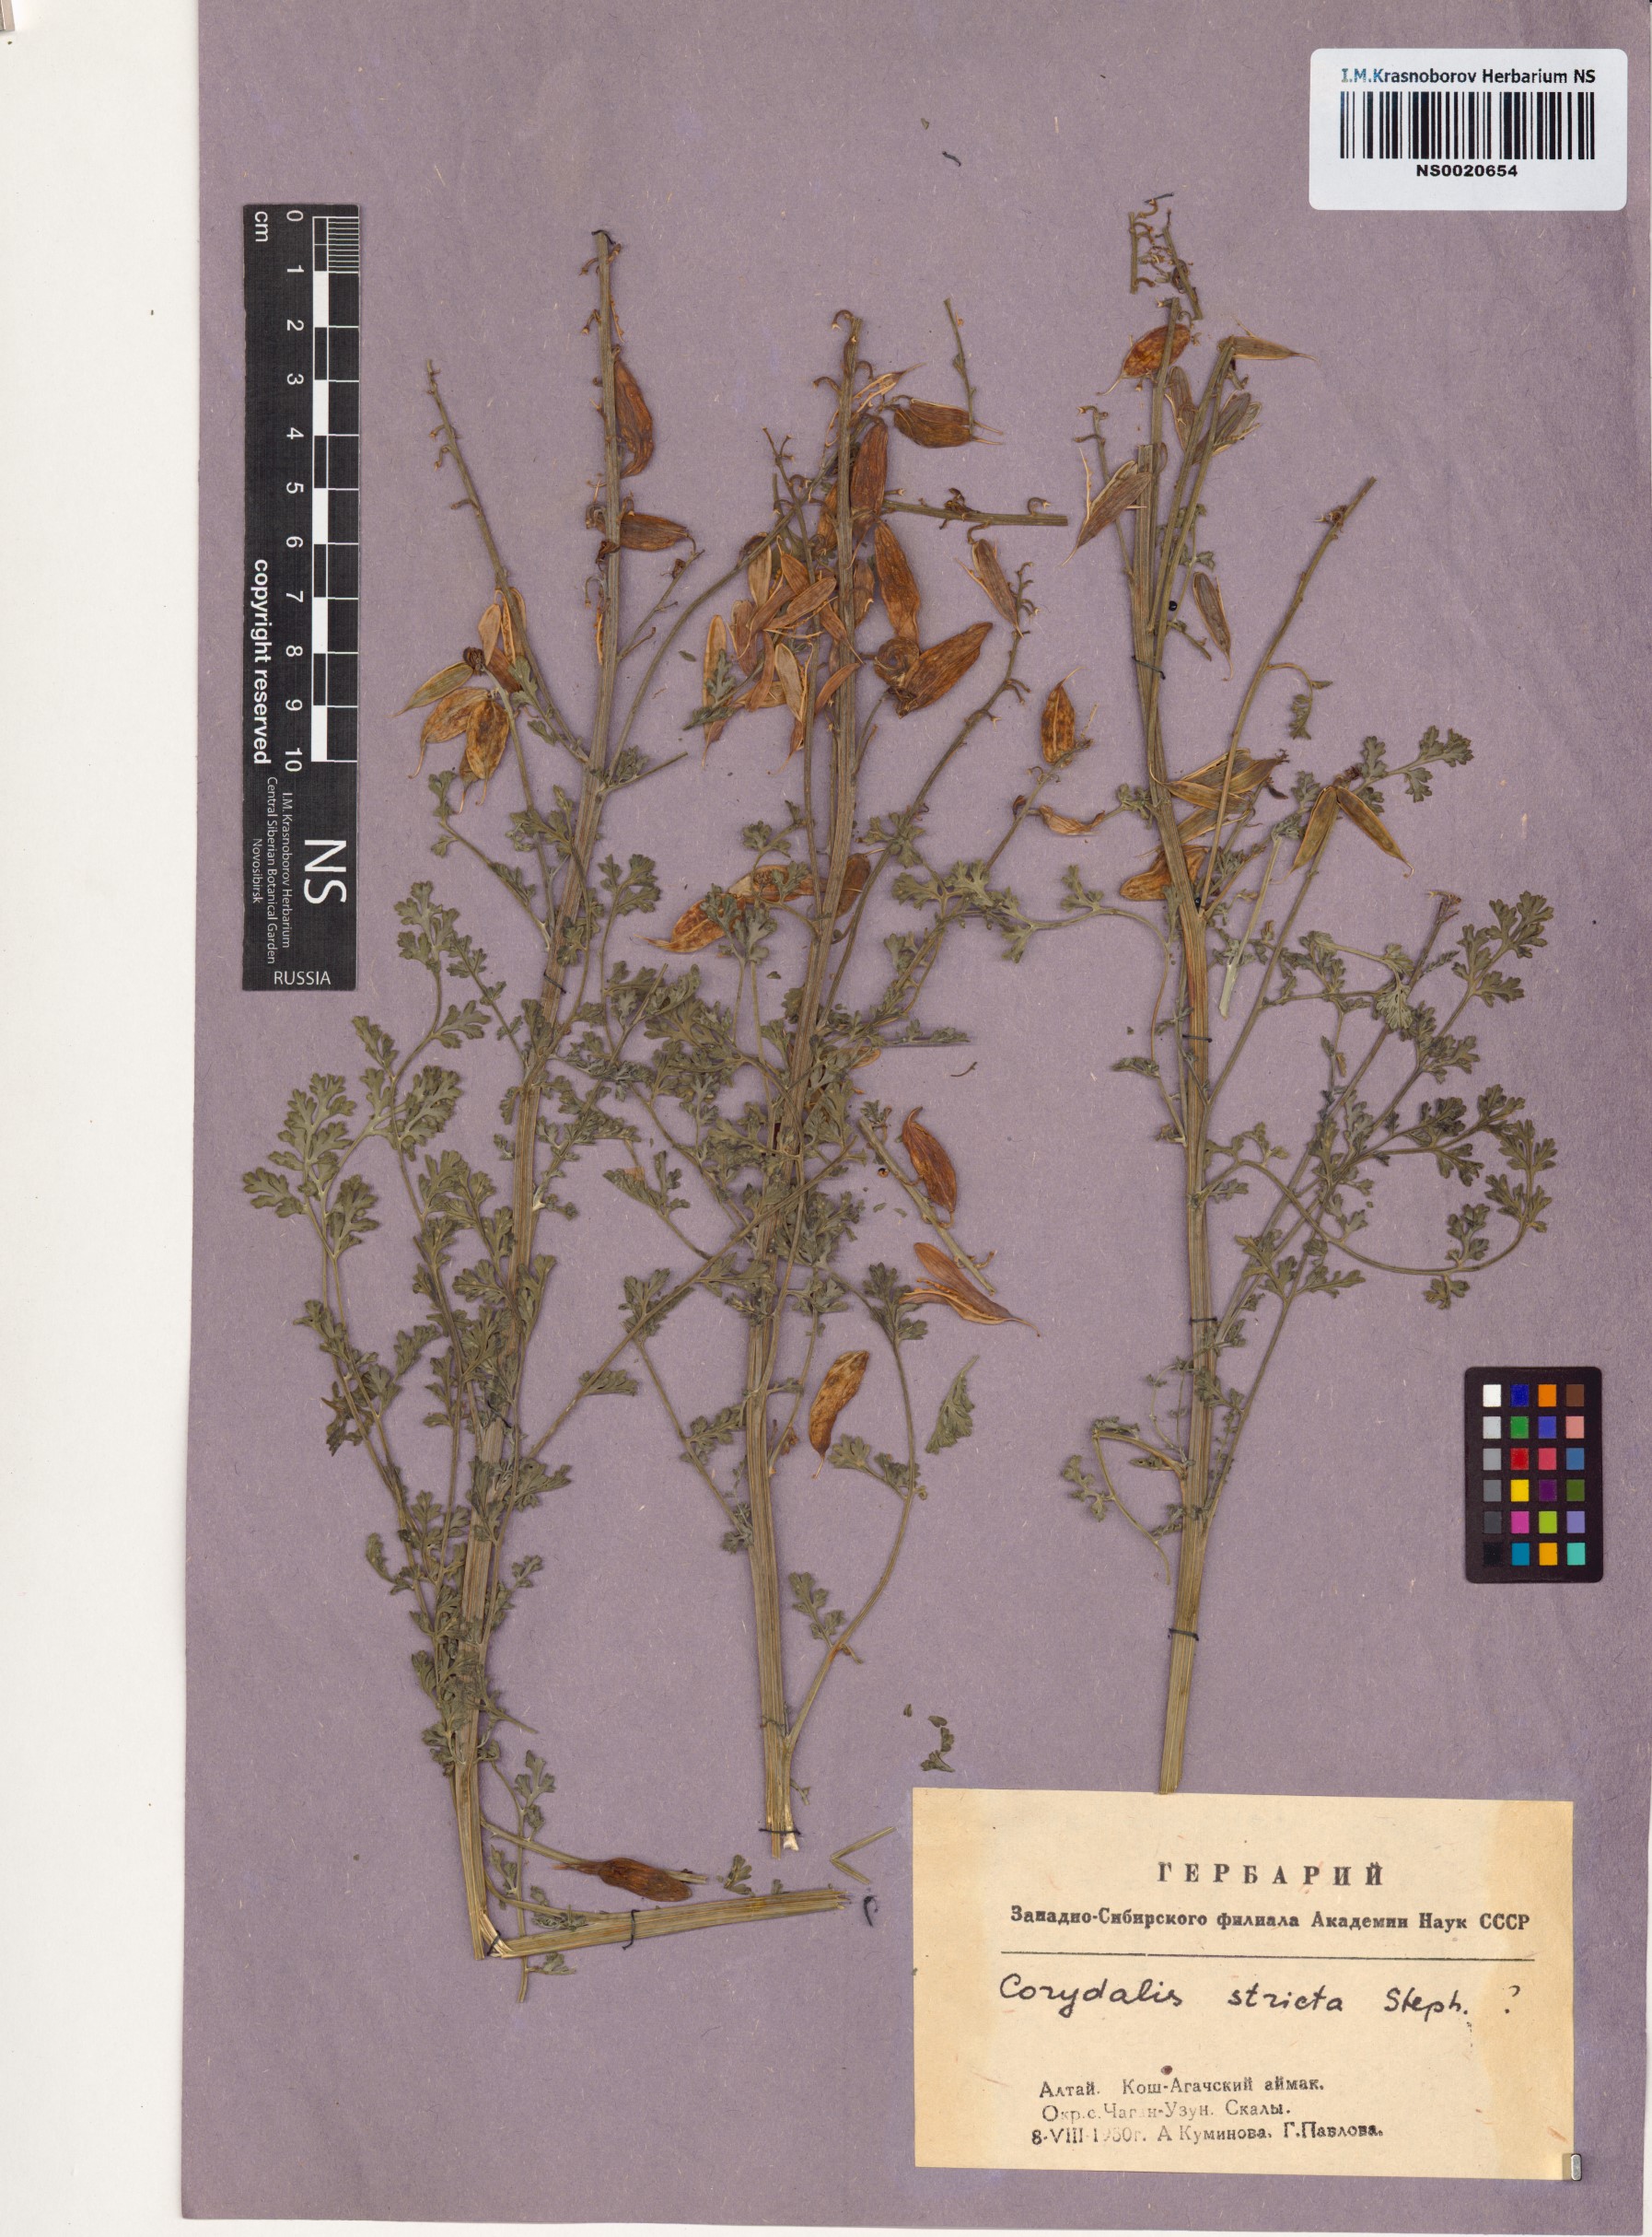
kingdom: Plantae
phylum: Tracheophyta
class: Magnoliopsida
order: Ranunculales
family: Papaveraceae
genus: Corydalis
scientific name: Corydalis stricta
